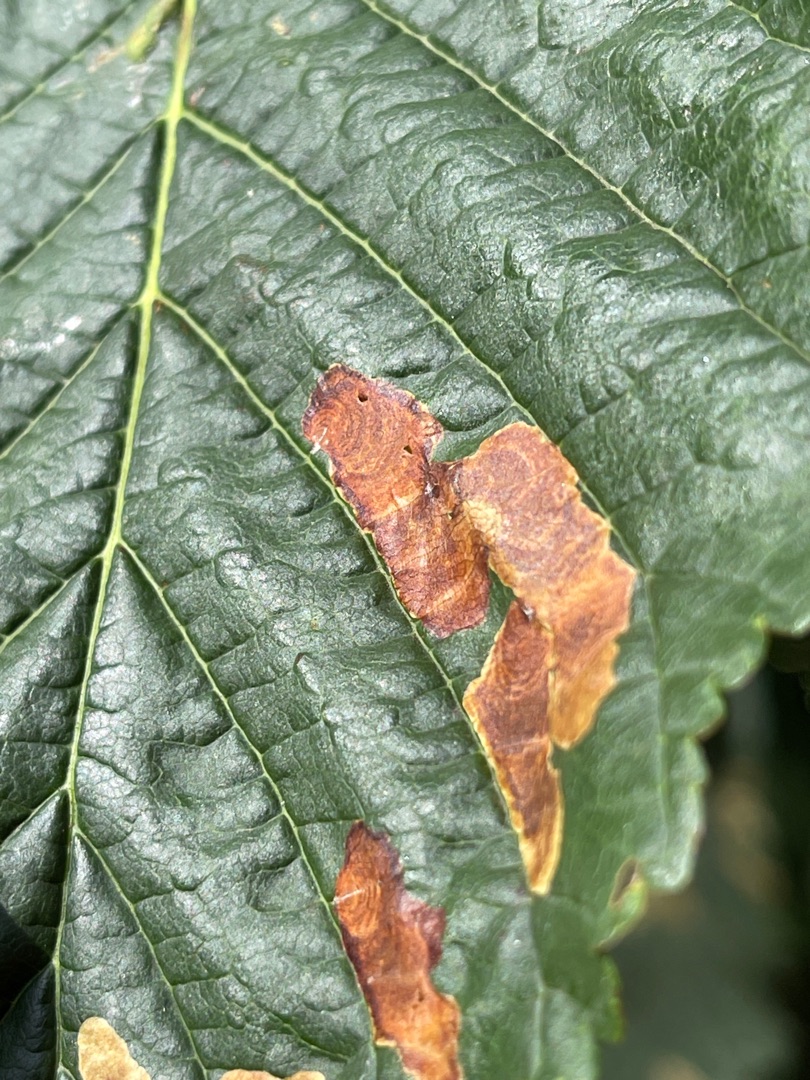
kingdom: Animalia
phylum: Arthropoda
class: Insecta
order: Lepidoptera
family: Gracillariidae
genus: Cameraria
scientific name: Cameraria ohridella
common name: Kastanieminérmøl
